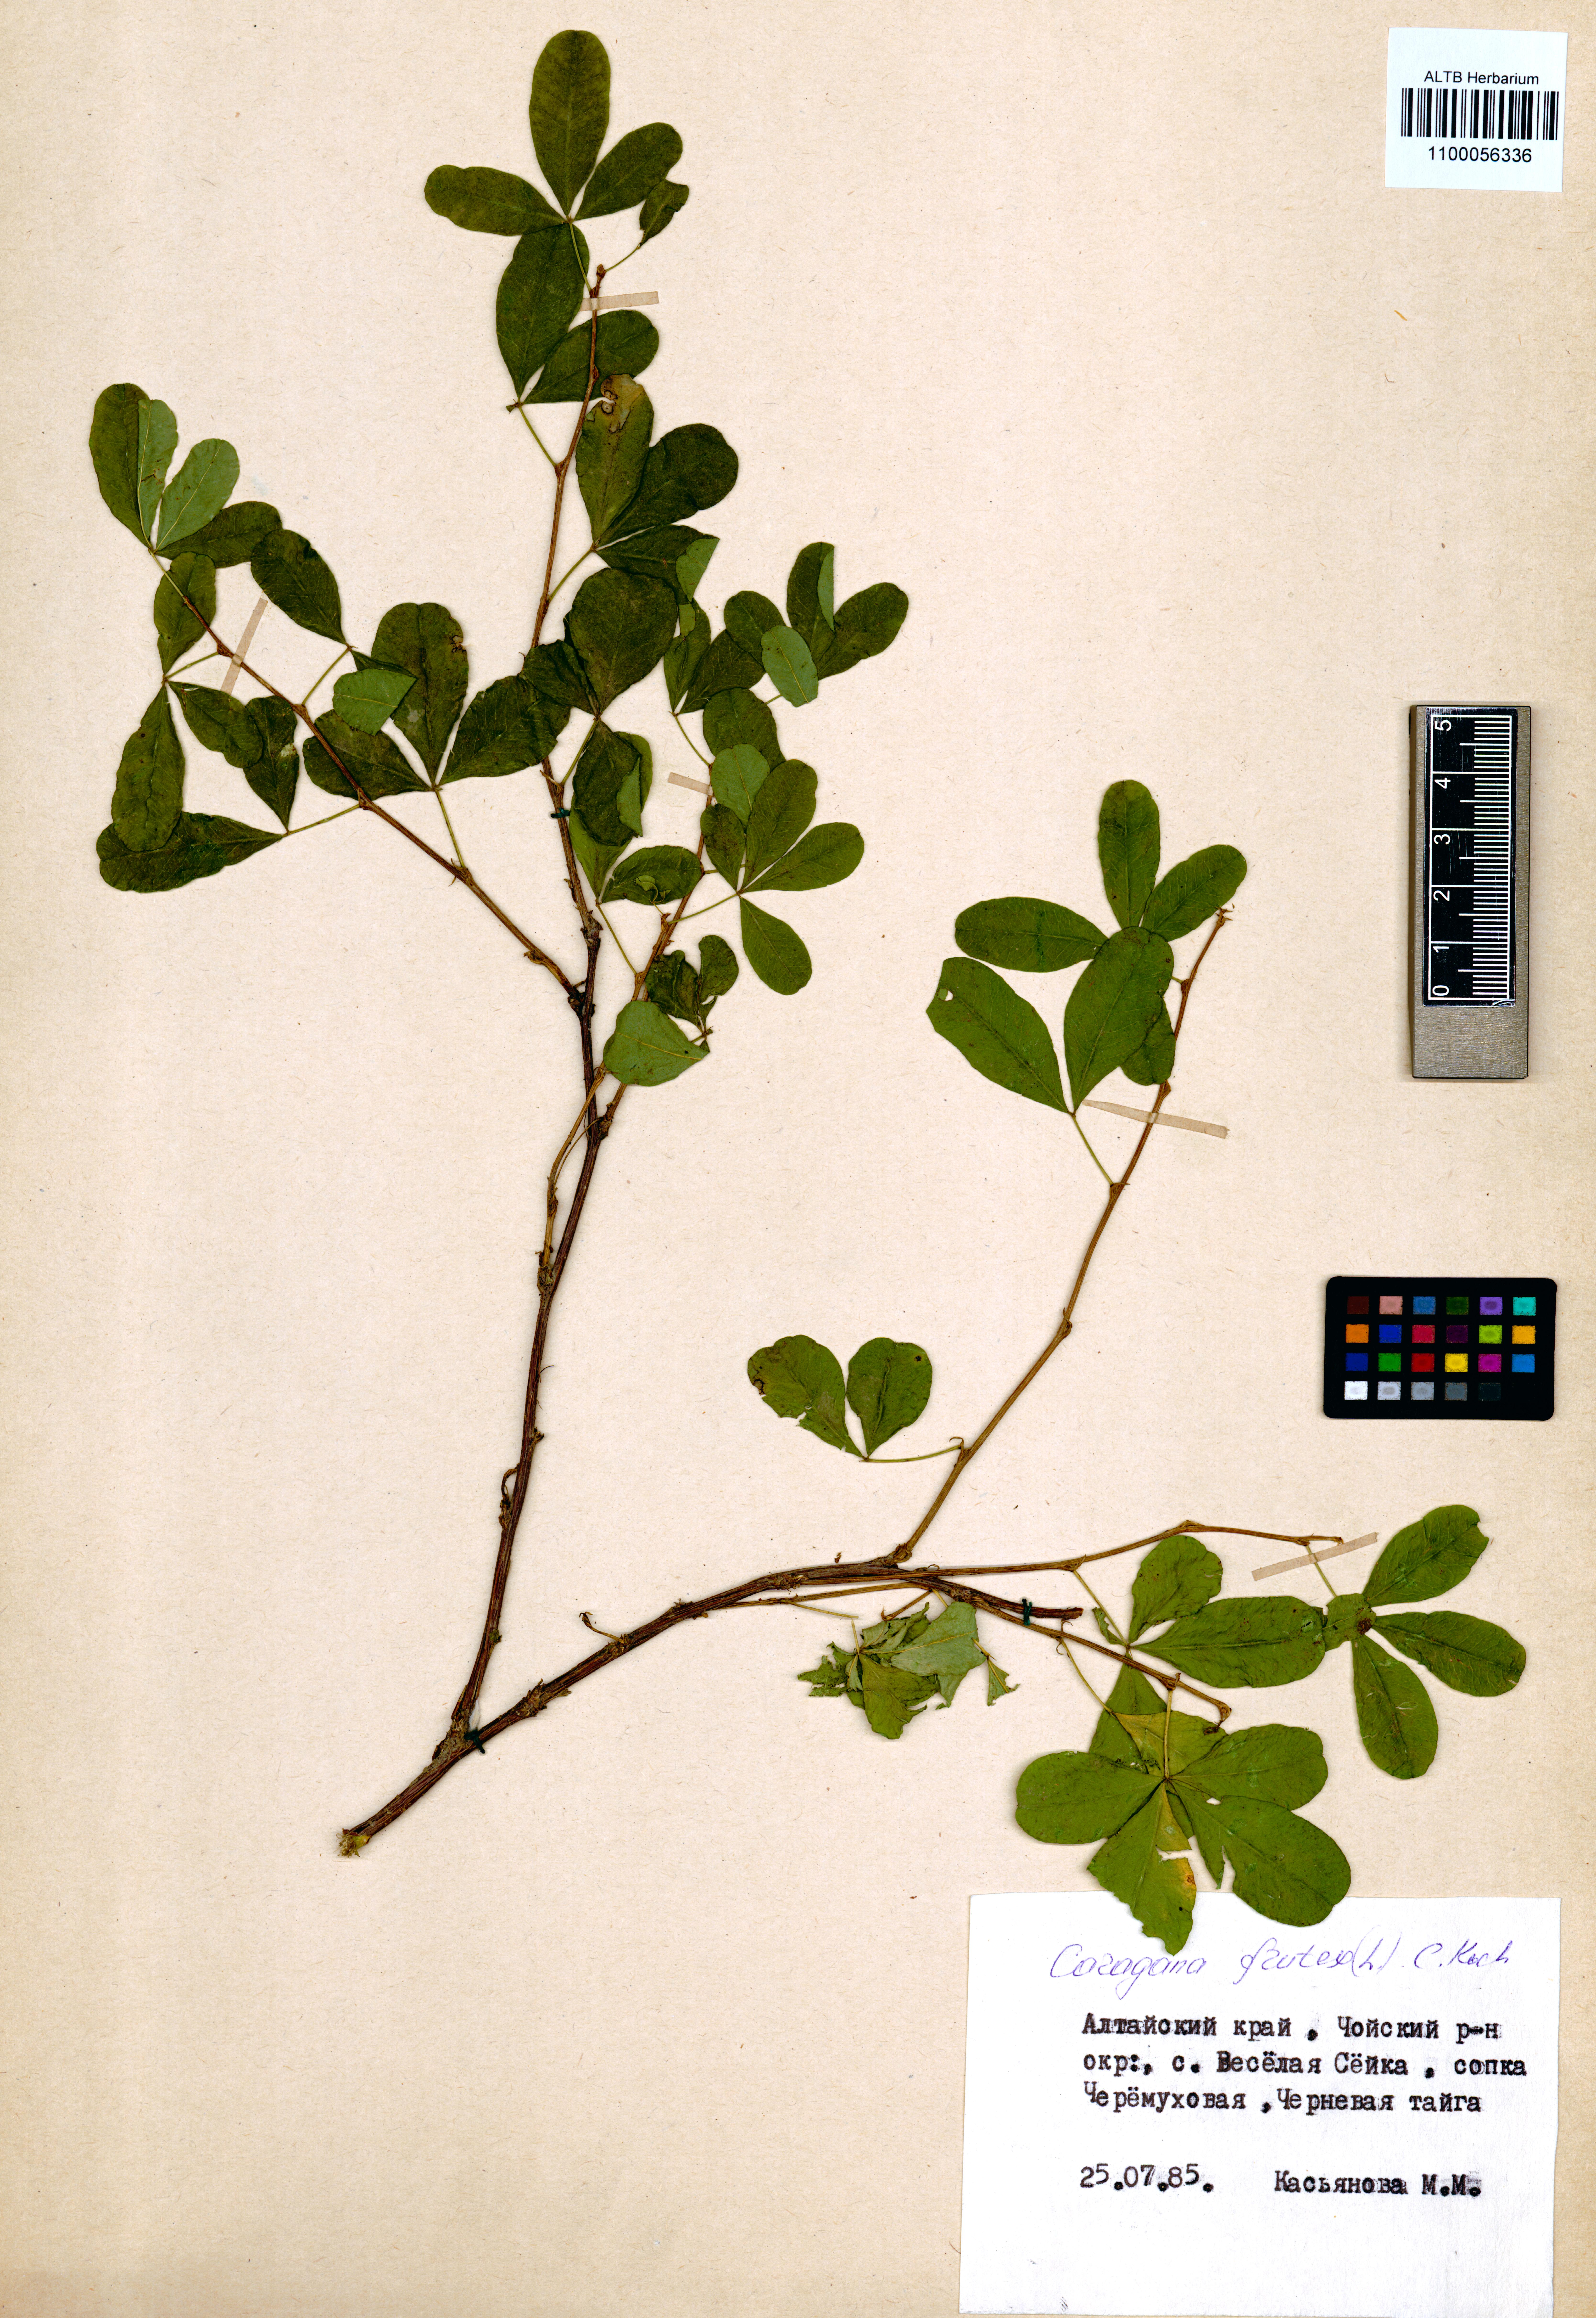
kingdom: Plantae
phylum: Tracheophyta
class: Magnoliopsida
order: Fabales
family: Fabaceae
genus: Caragana
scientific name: Caragana frutex
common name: Russian peashrub
